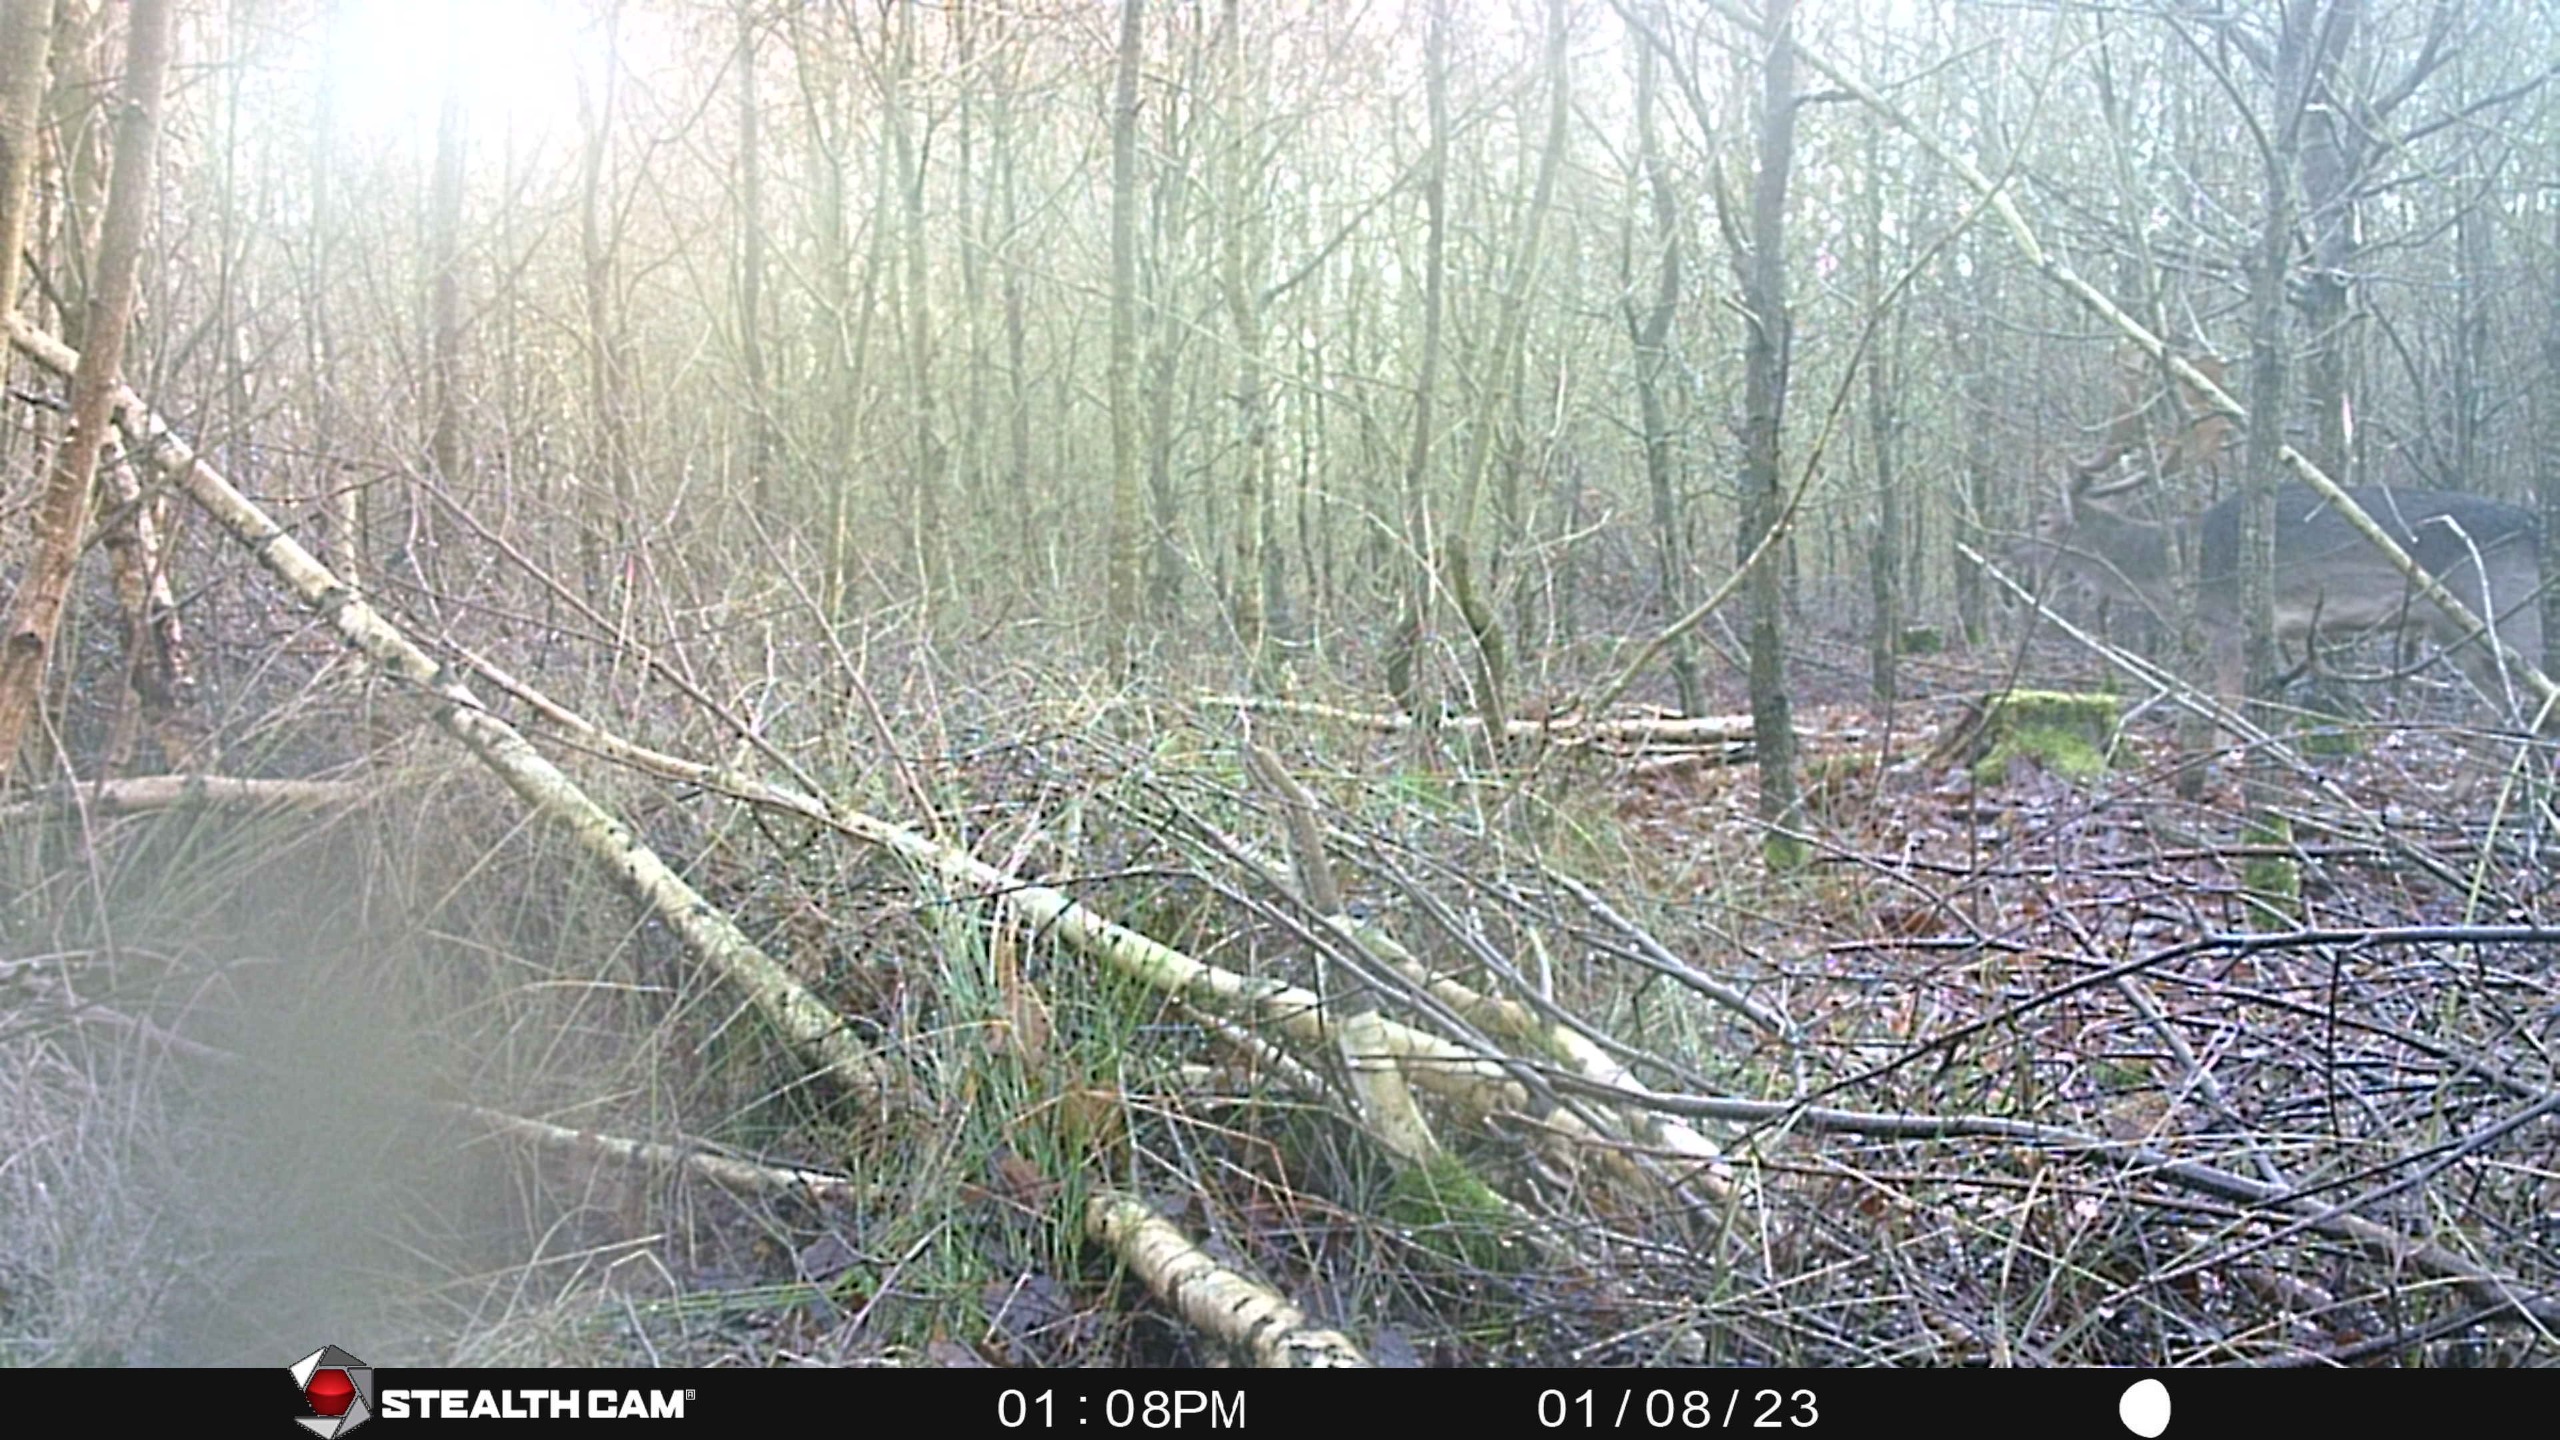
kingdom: Animalia
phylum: Chordata
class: Mammalia
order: Artiodactyla
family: Cervidae
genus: Dama
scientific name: Dama dama
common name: Dådyr
